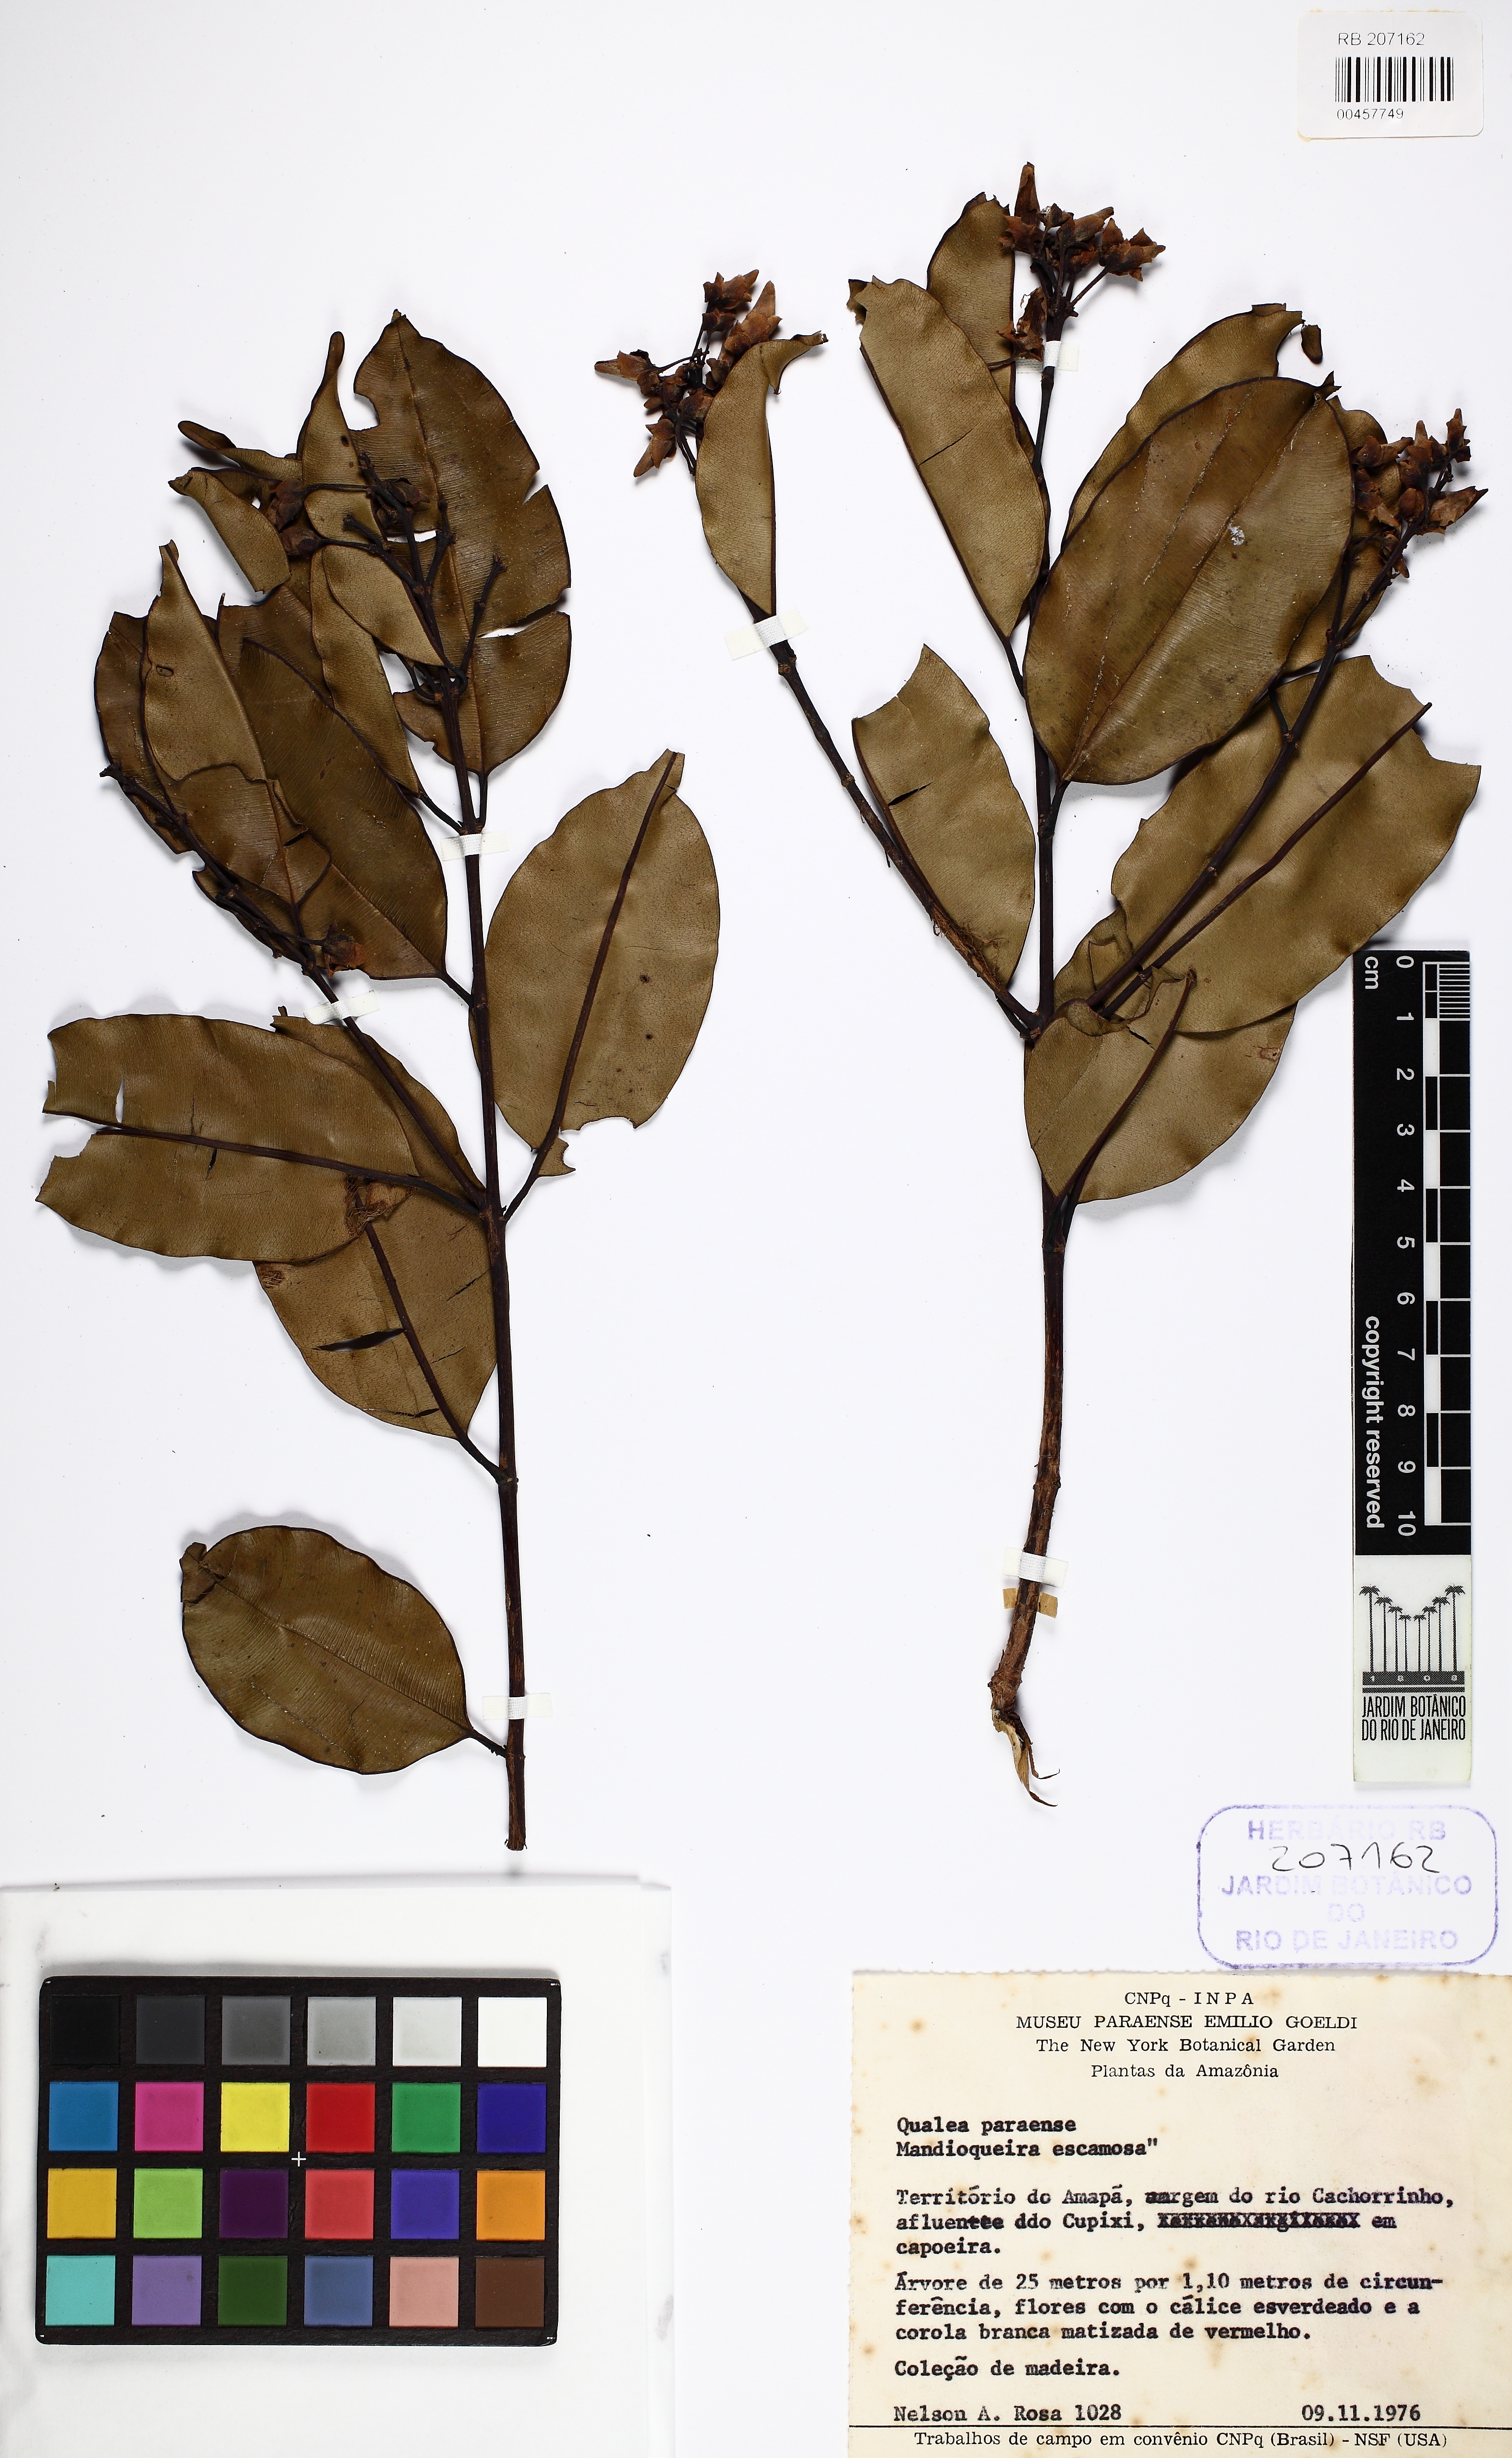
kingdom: Plantae
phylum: Tracheophyta
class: Magnoliopsida
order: Myrtales
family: Vochysiaceae
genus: Qualea
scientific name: Qualea paraensis
